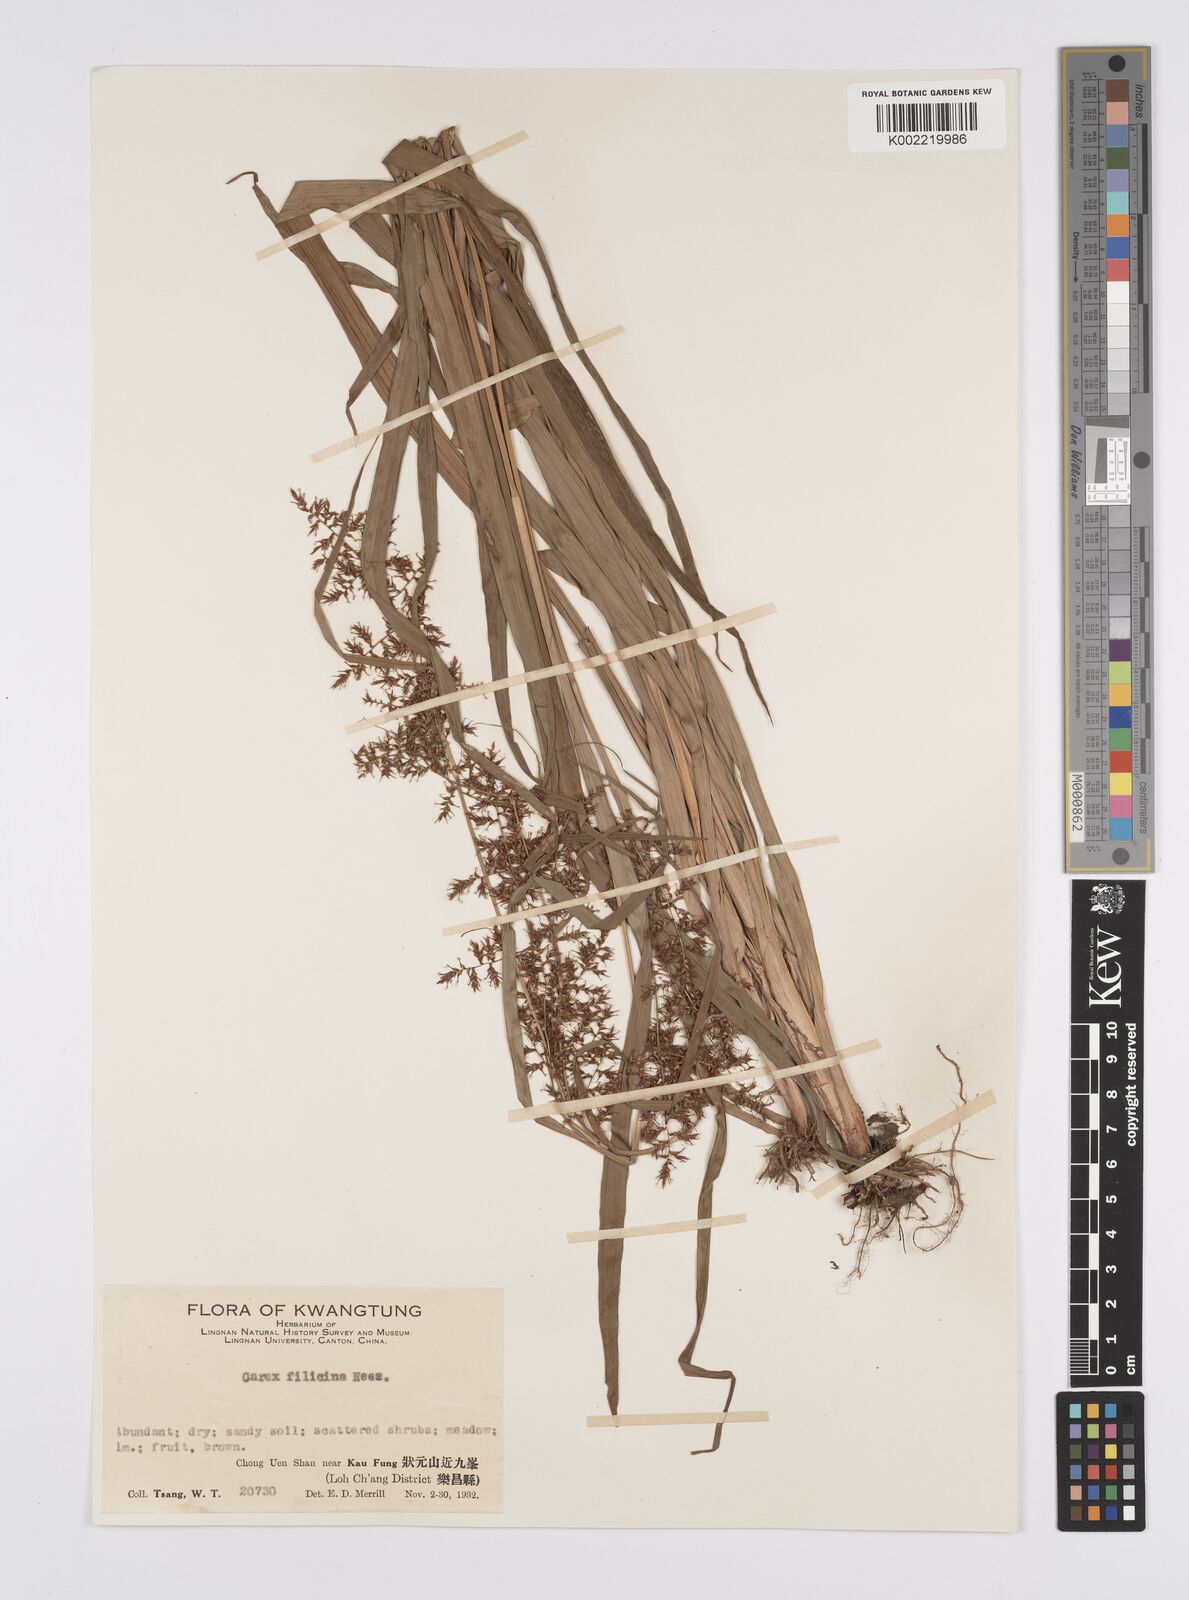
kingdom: Plantae
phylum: Tracheophyta
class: Liliopsida
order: Poales
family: Cyperaceae
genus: Carex
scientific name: Carex filicina
